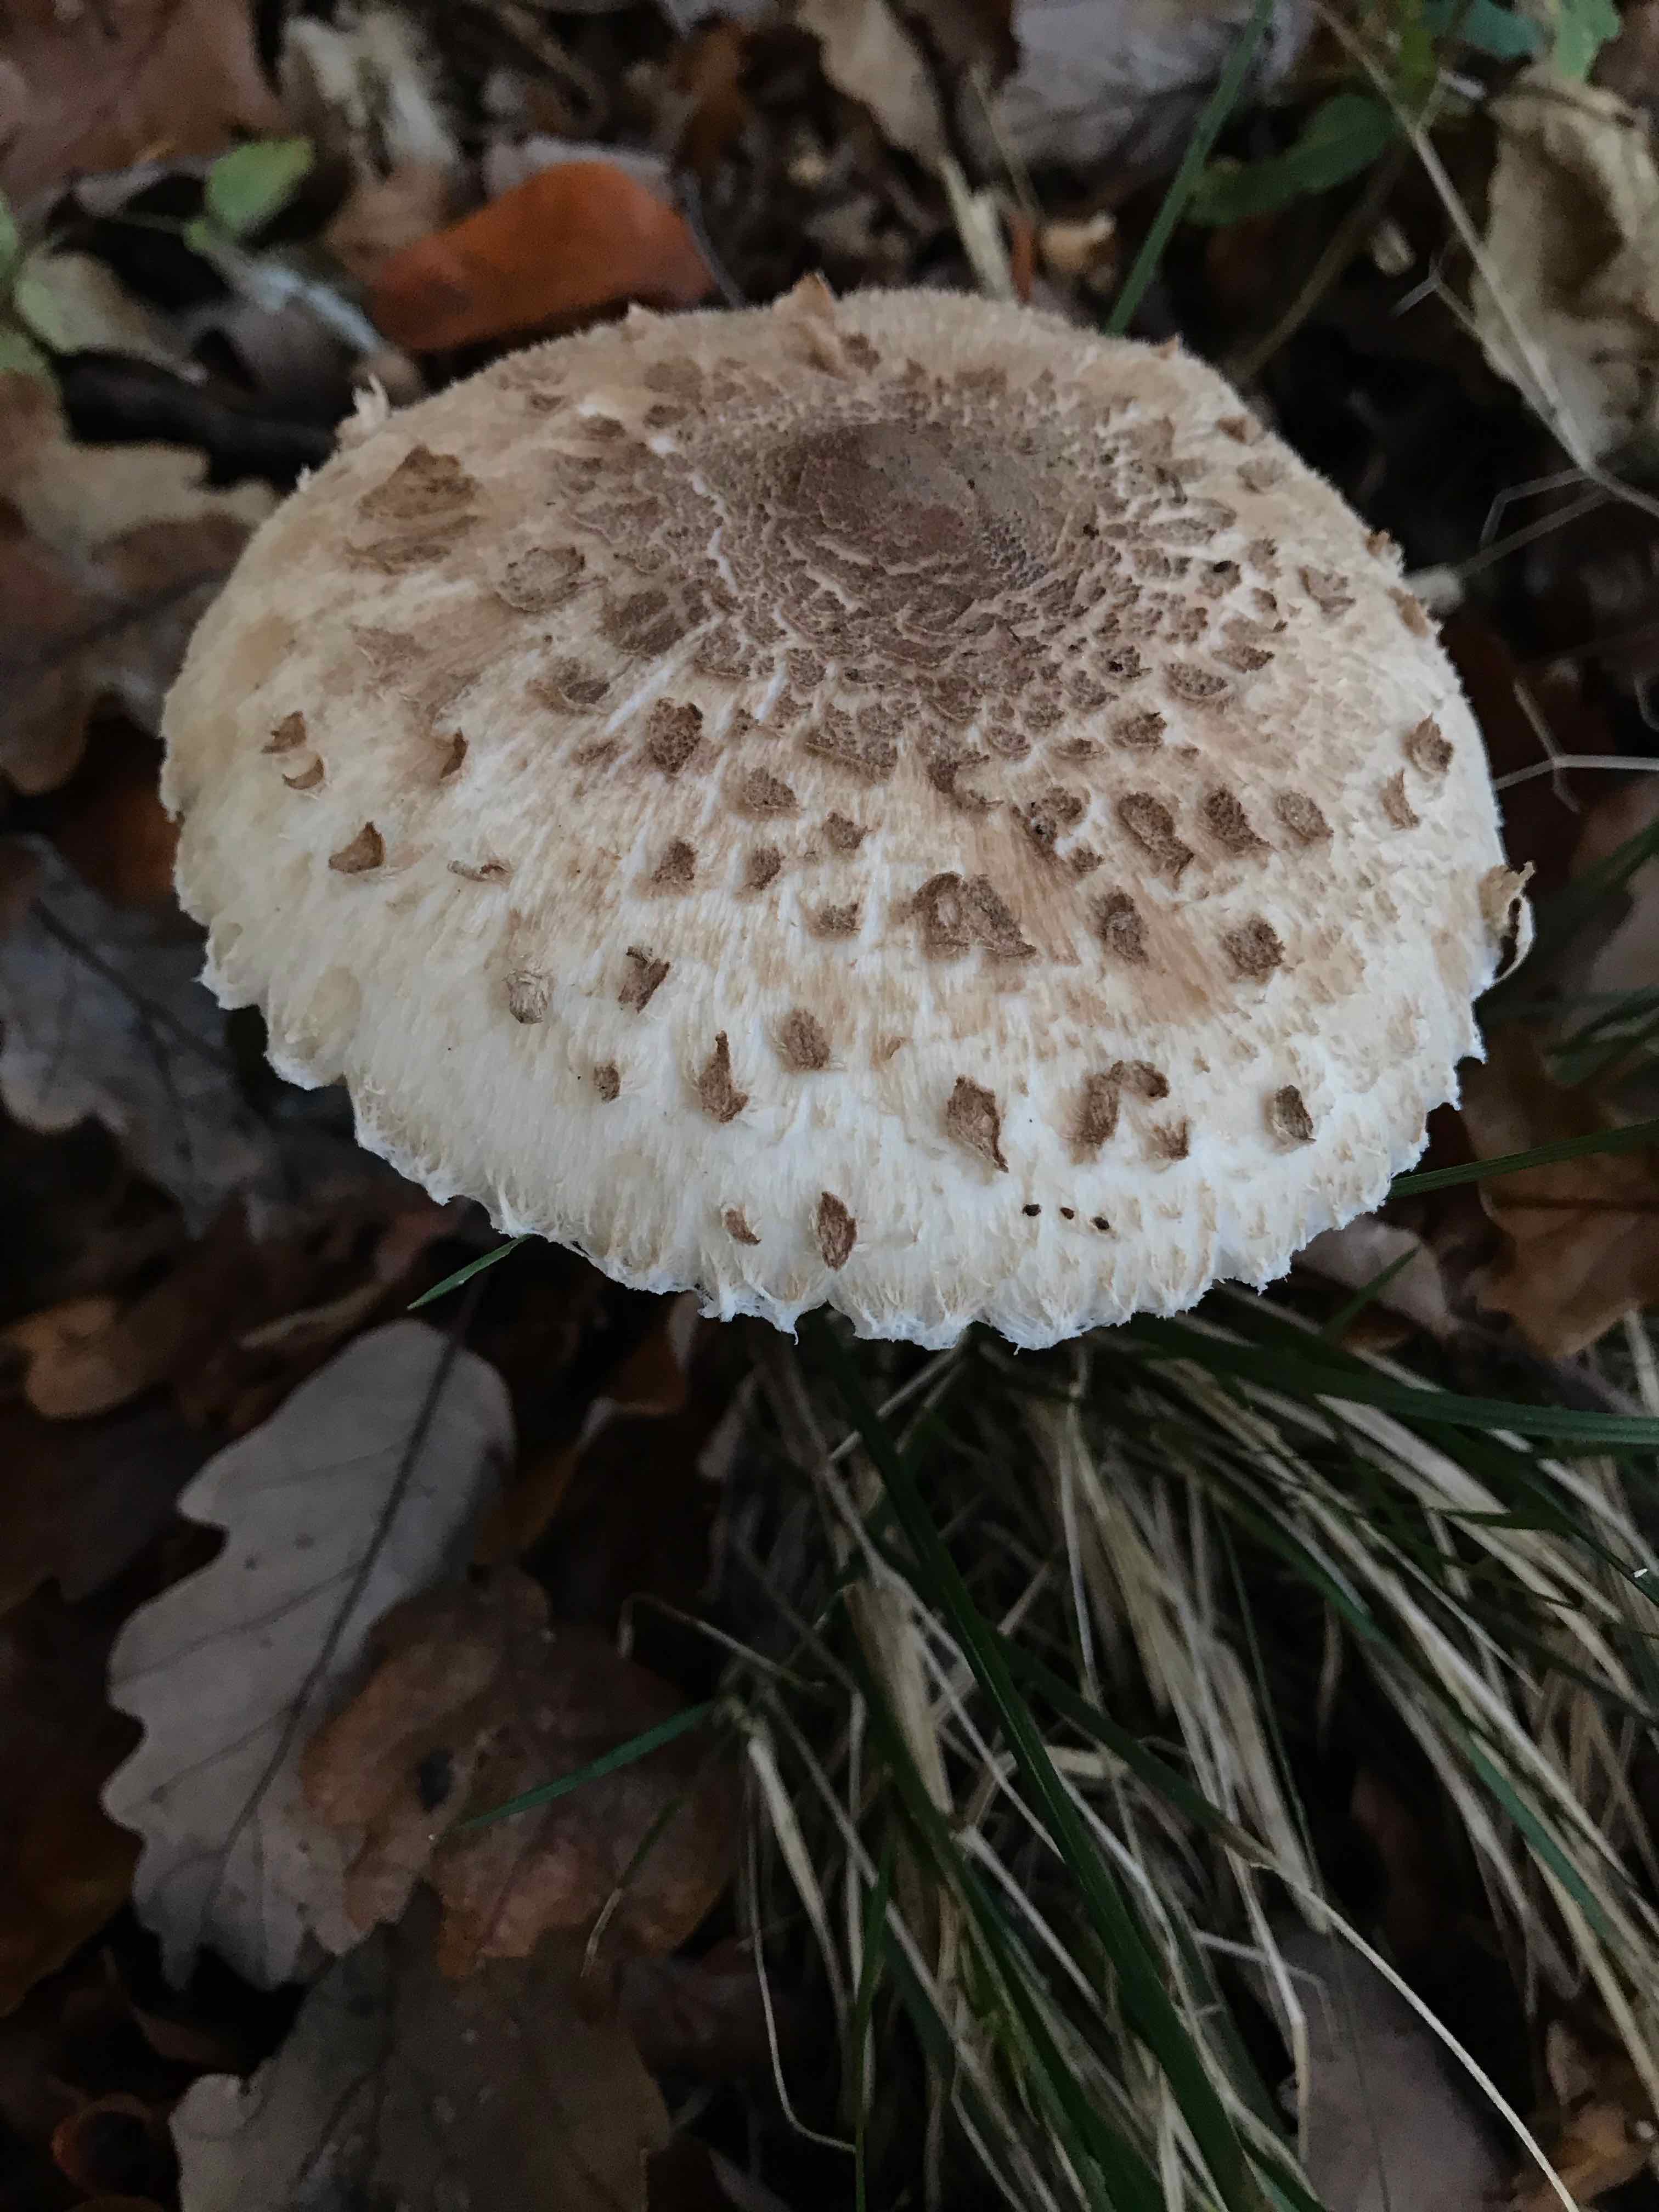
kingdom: Fungi
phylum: Basidiomycota
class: Agaricomycetes
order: Agaricales
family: Agaricaceae
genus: Macrolepiota
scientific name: Macrolepiota
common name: kæmpeparasolhat
